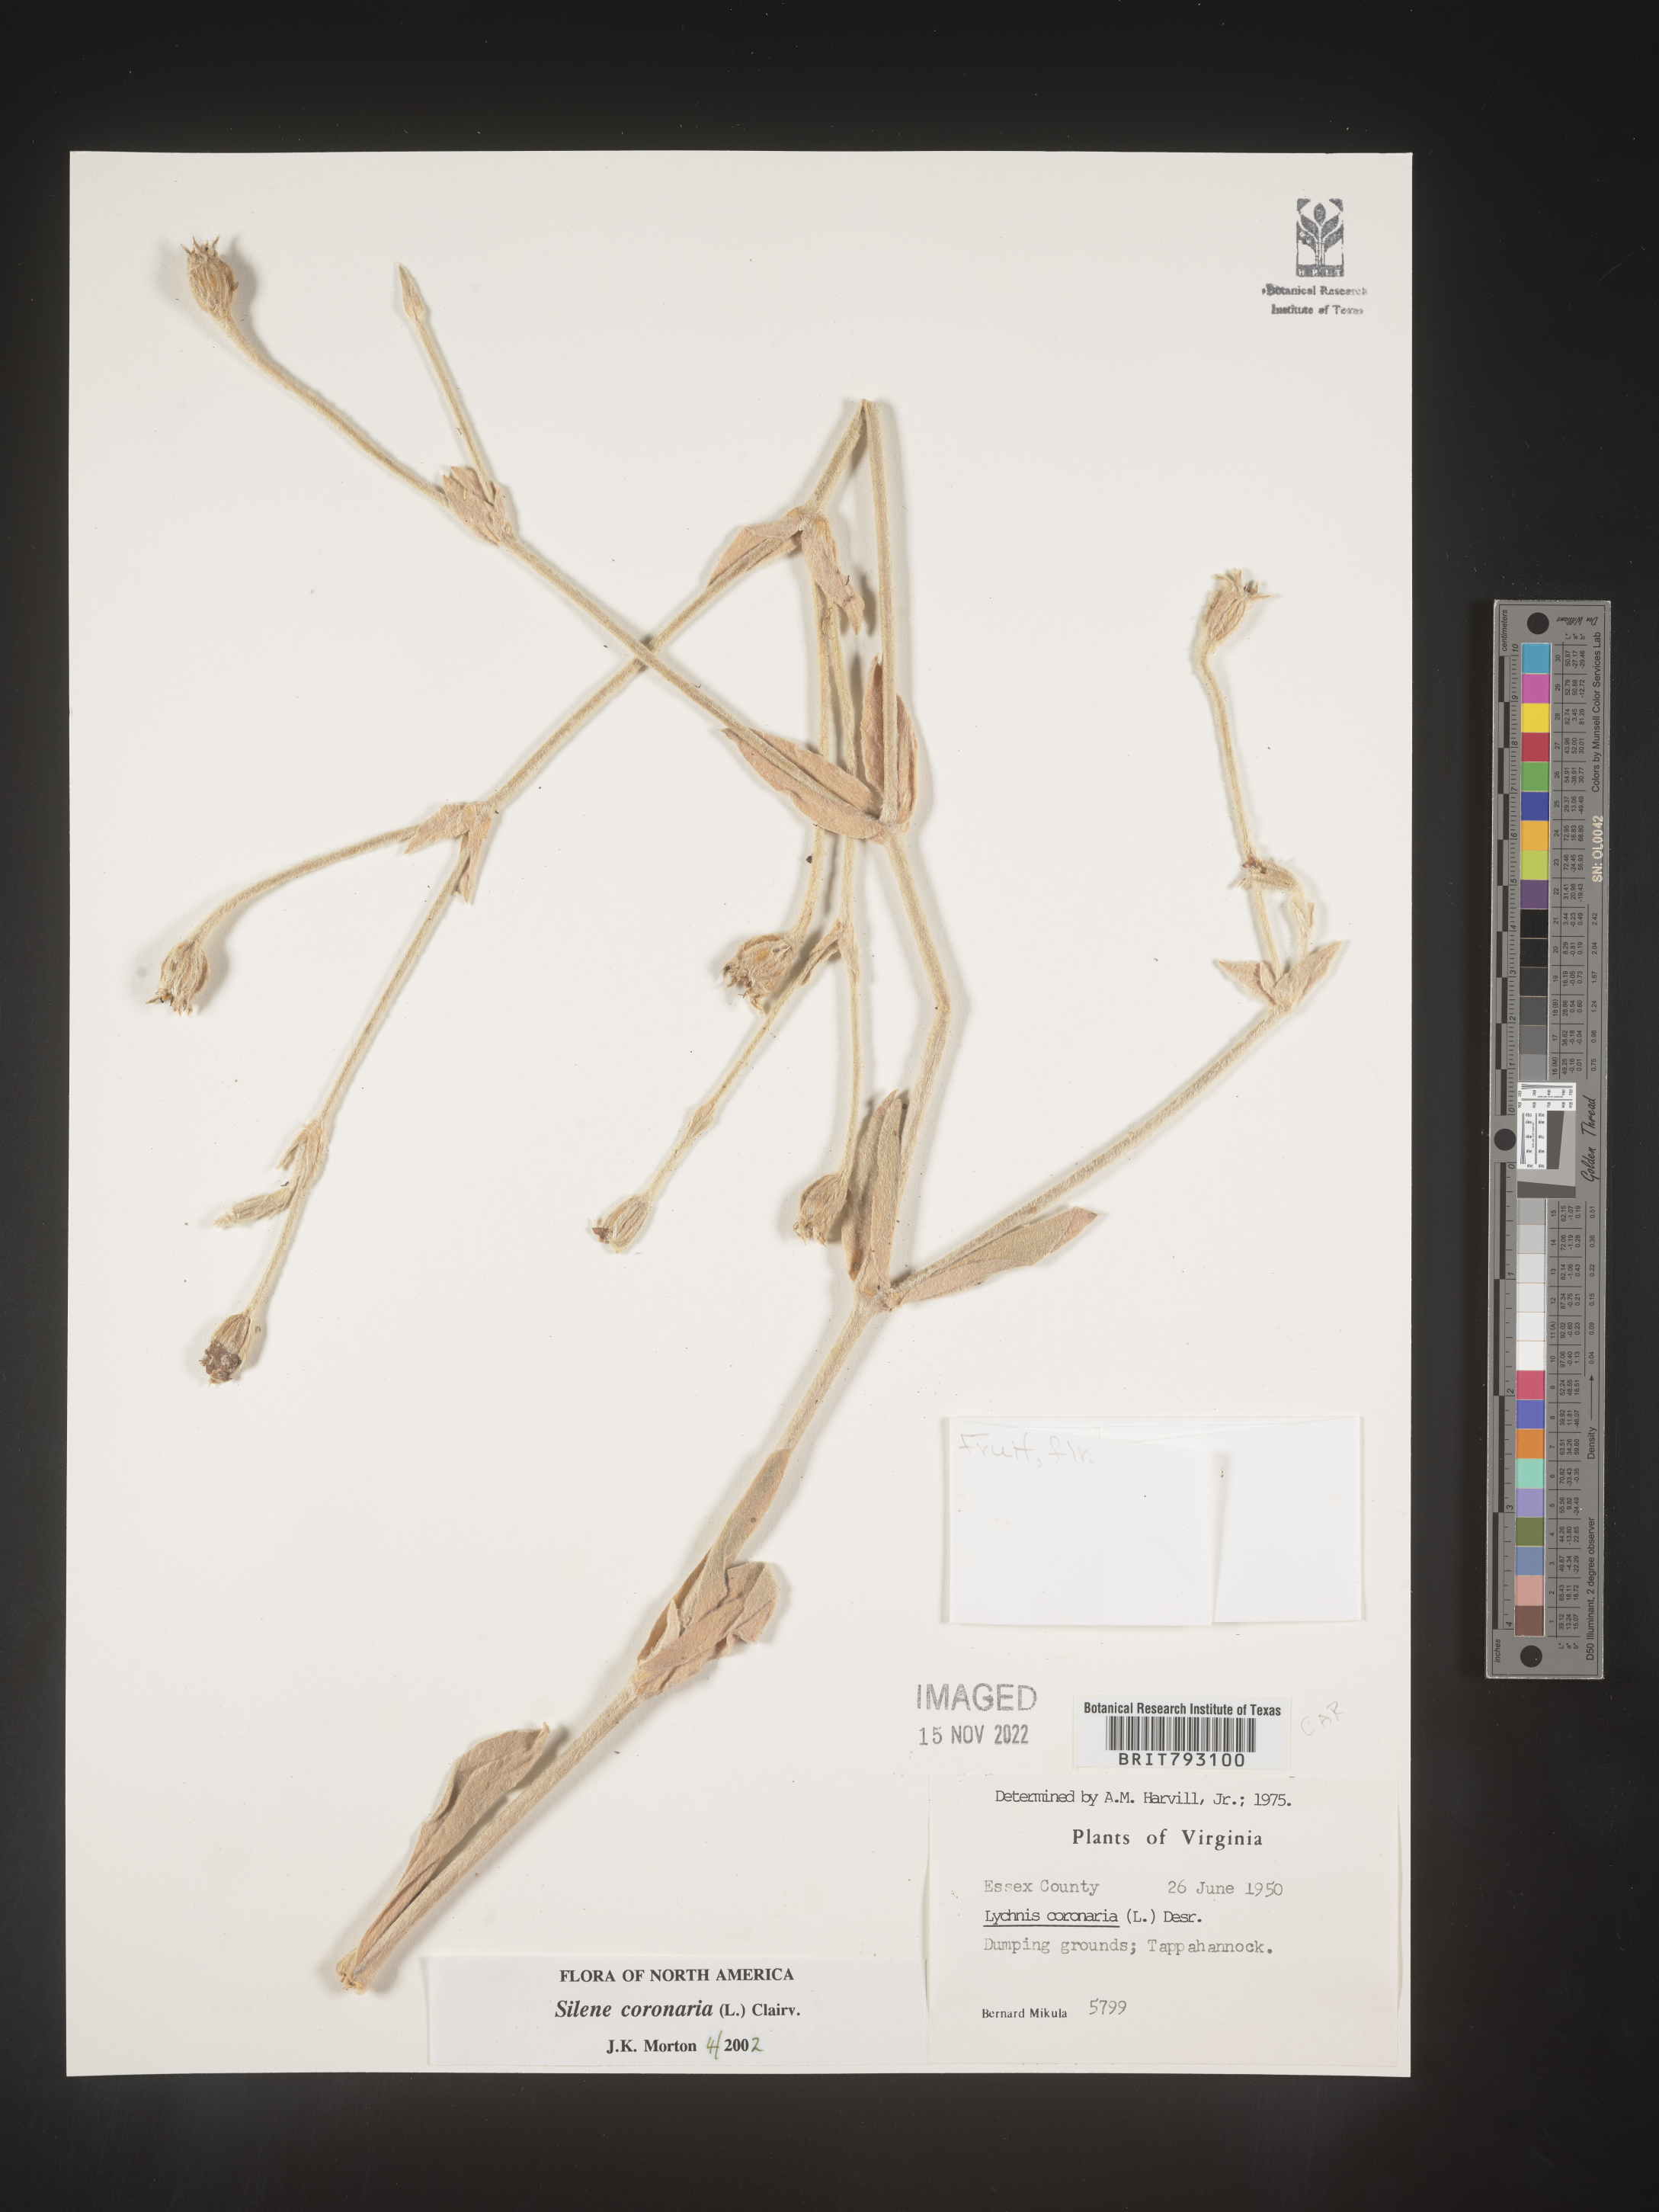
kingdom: Plantae
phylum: Tracheophyta
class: Magnoliopsida
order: Caryophyllales
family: Caryophyllaceae
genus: Silene
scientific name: Silene coronaria
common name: Rose campion
